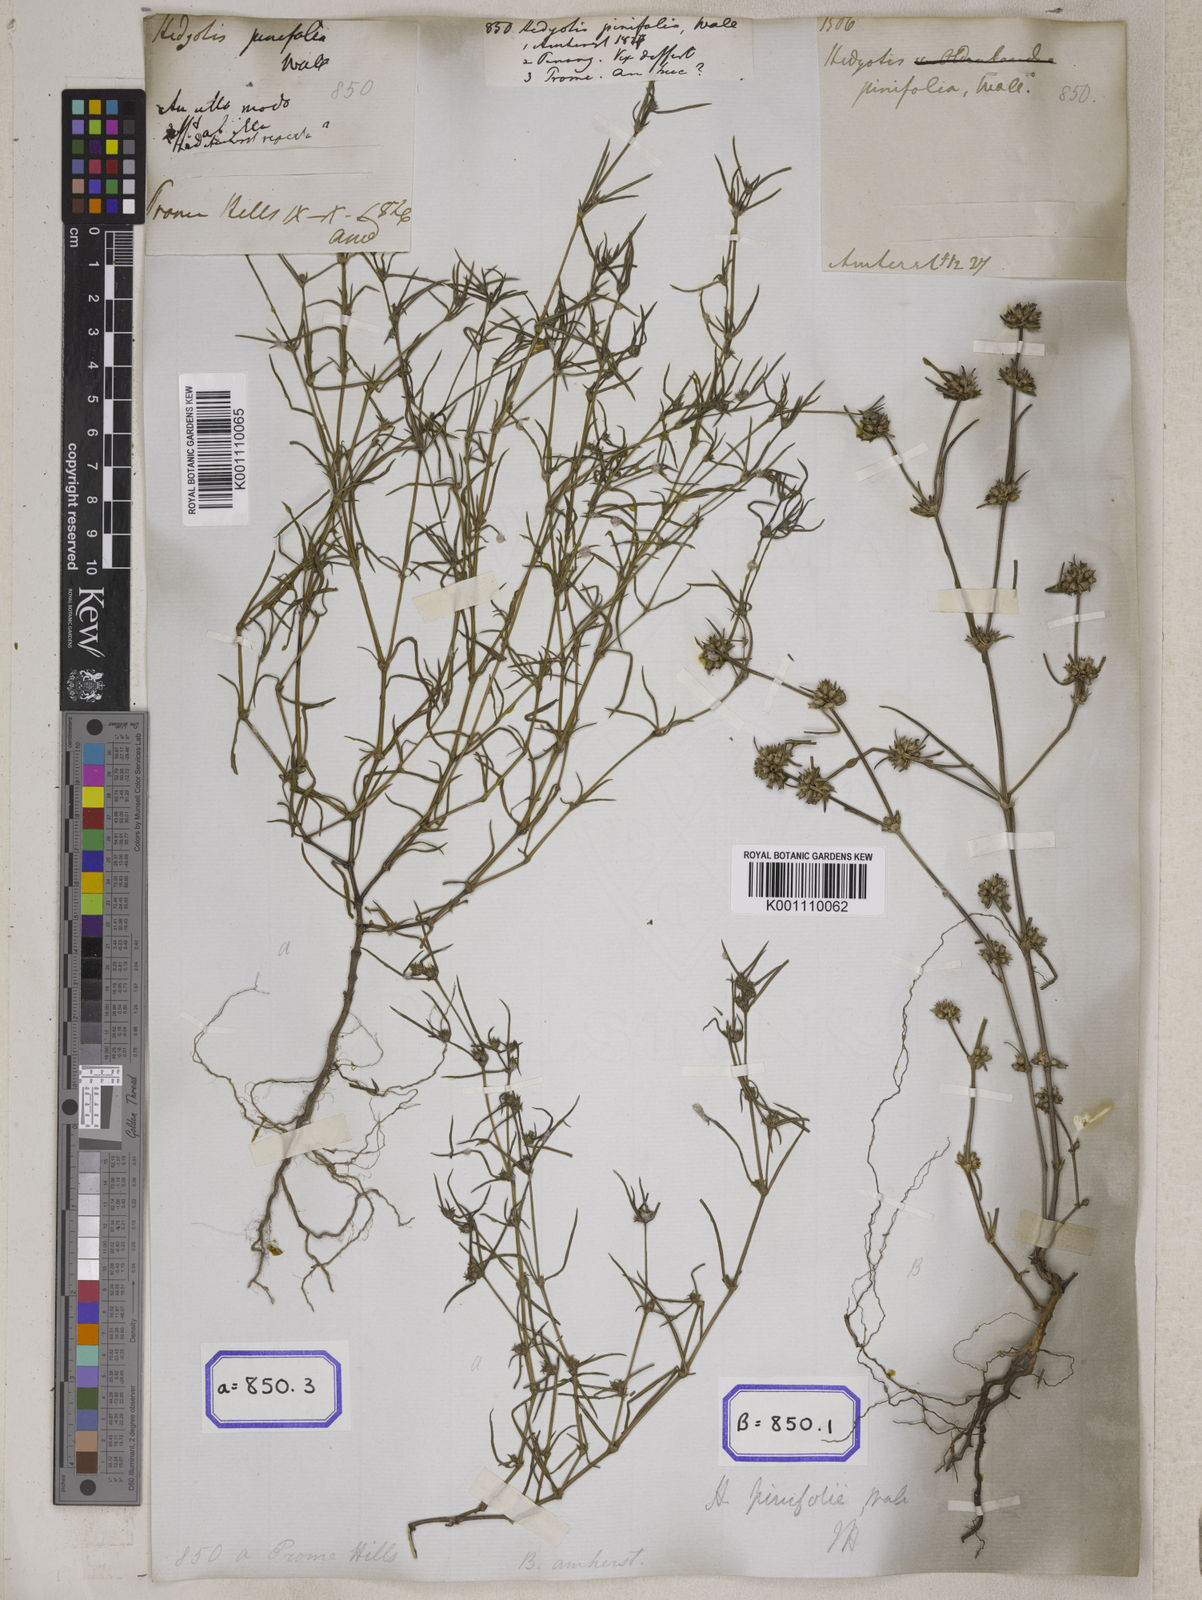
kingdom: Plantae
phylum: Tracheophyta
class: Magnoliopsida
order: Gentianales
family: Rubiaceae
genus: Hedyotis
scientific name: Hedyotis
